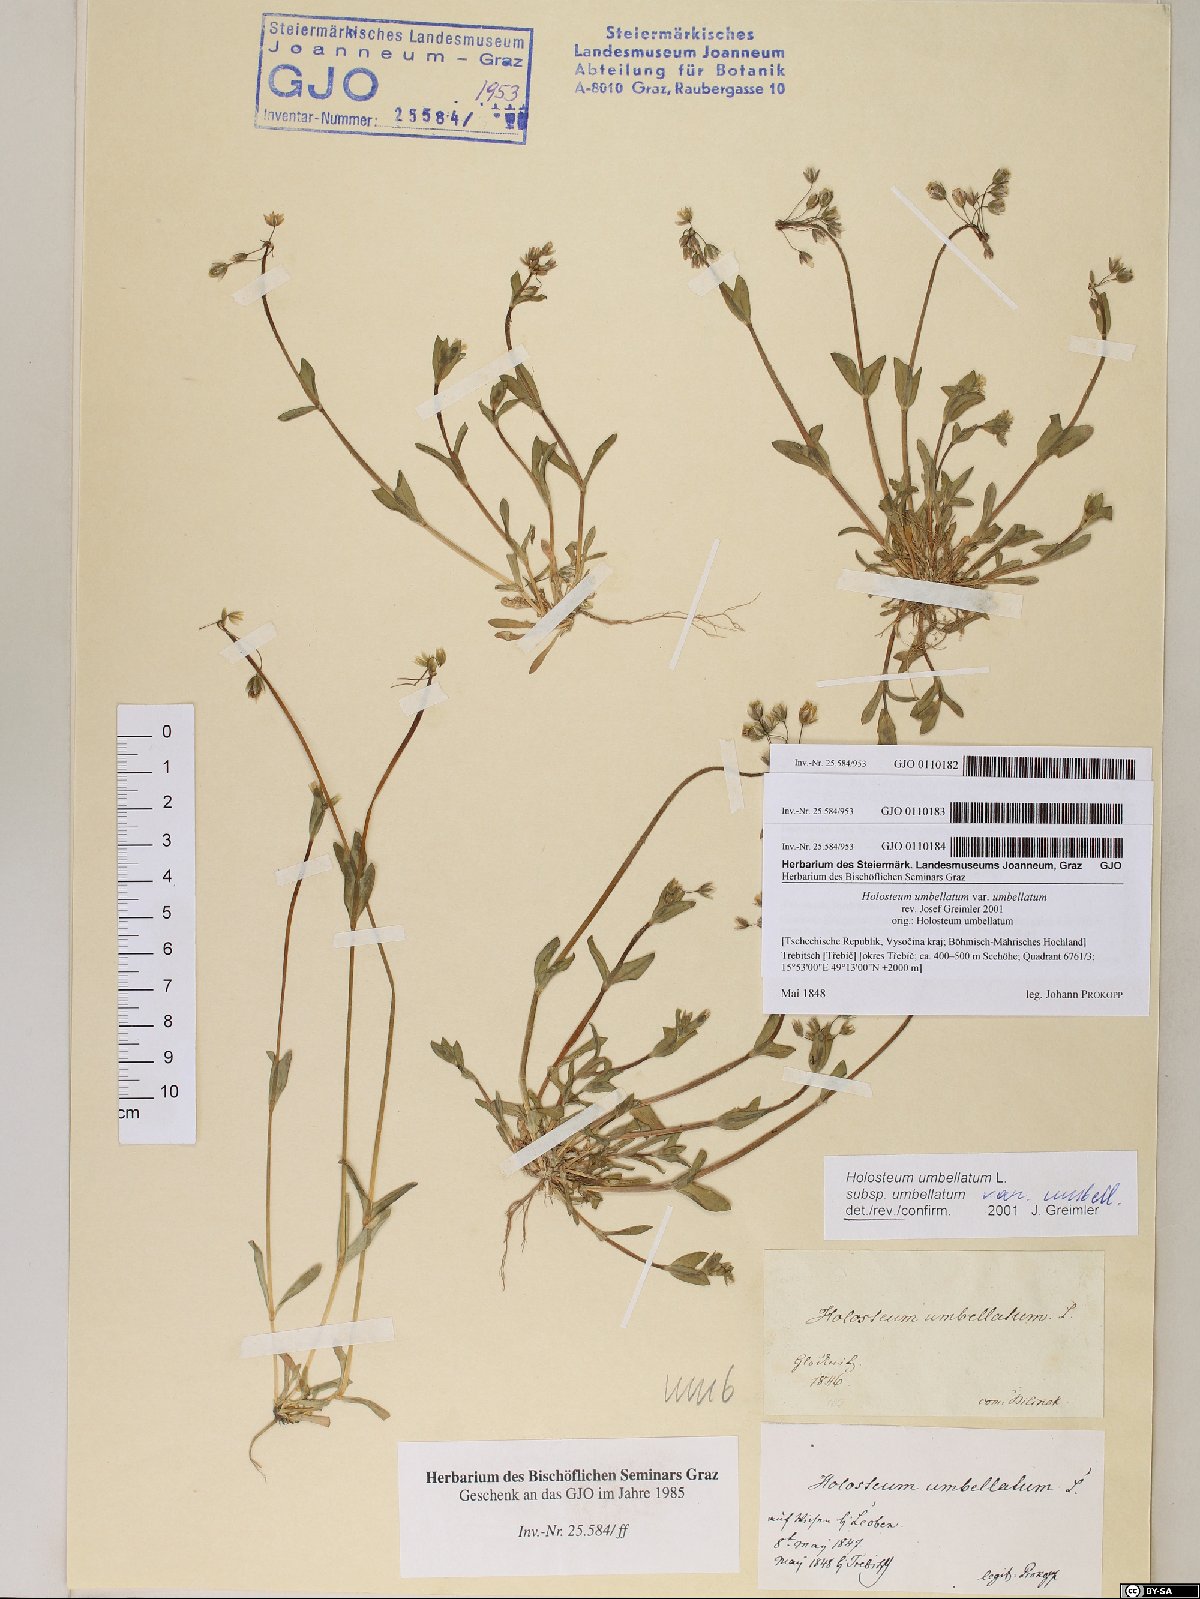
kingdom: Plantae
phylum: Tracheophyta
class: Magnoliopsida
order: Caryophyllales
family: Caryophyllaceae
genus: Holosteum
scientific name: Holosteum umbellatum
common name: Jagged chickweed
